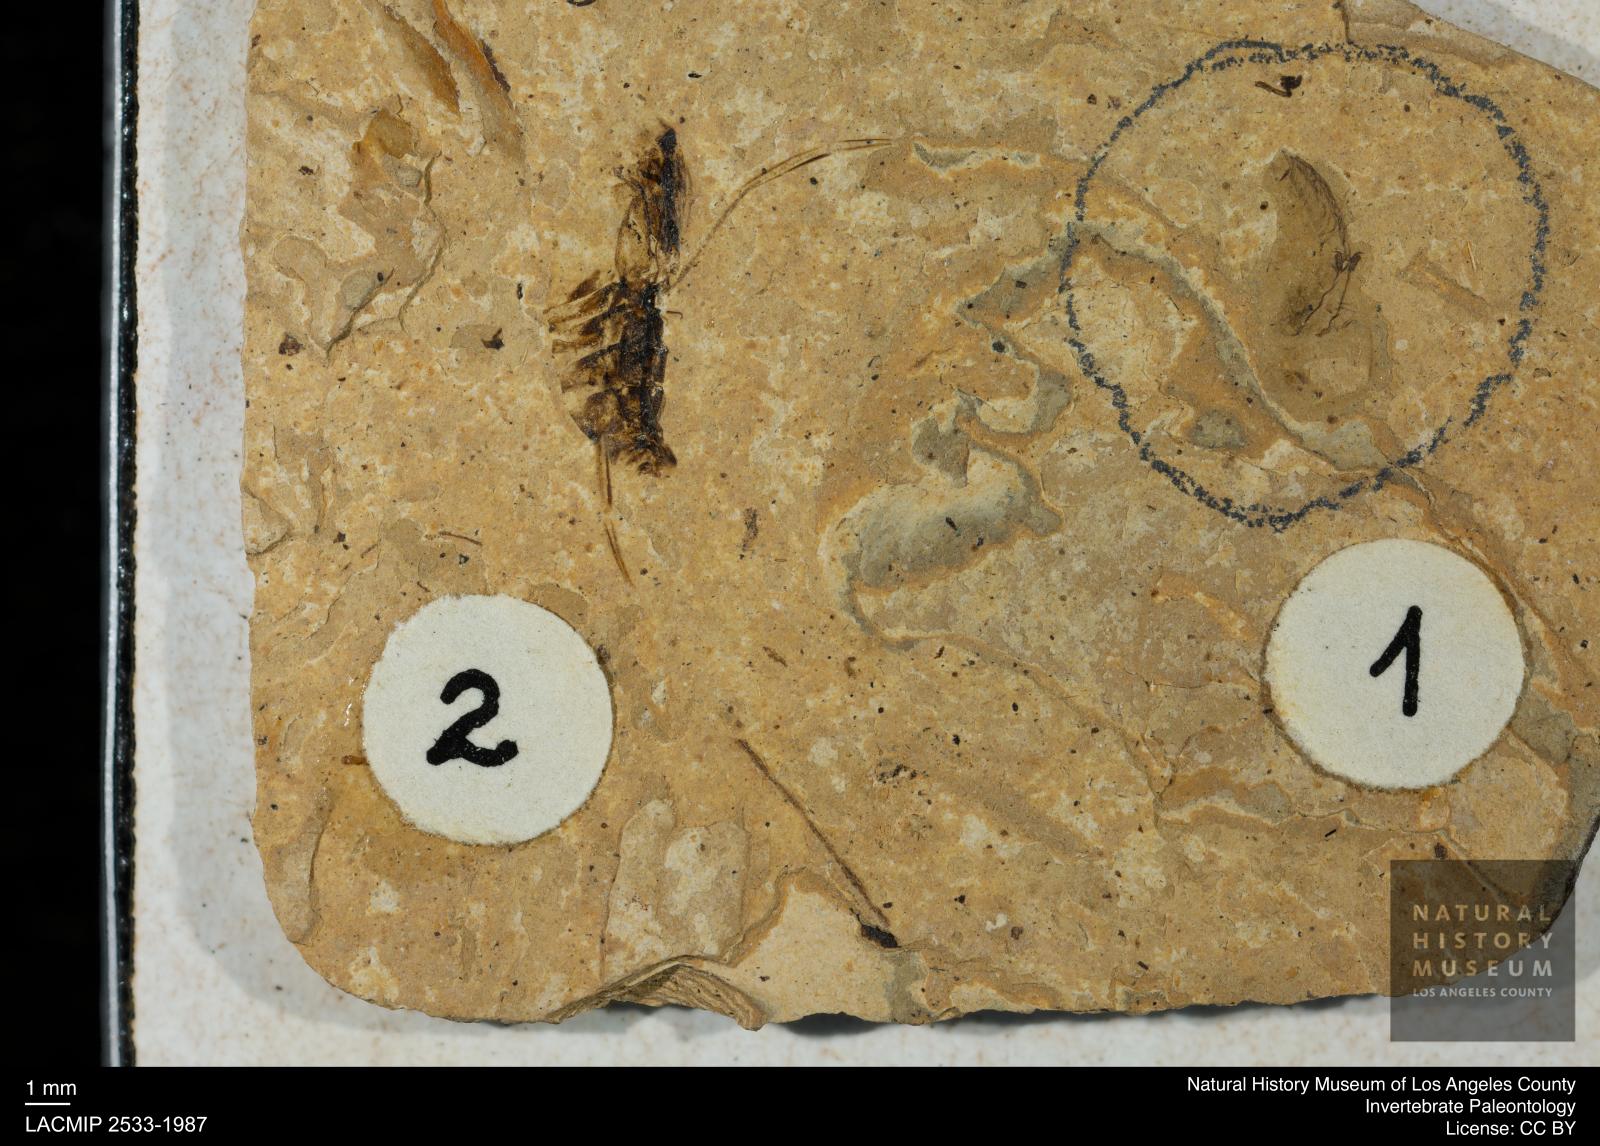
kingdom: Animalia
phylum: Arthropoda
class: Insecta
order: Hemiptera
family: Notonectidae
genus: Anisops
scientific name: Anisops Notonecta deichmuelleri
